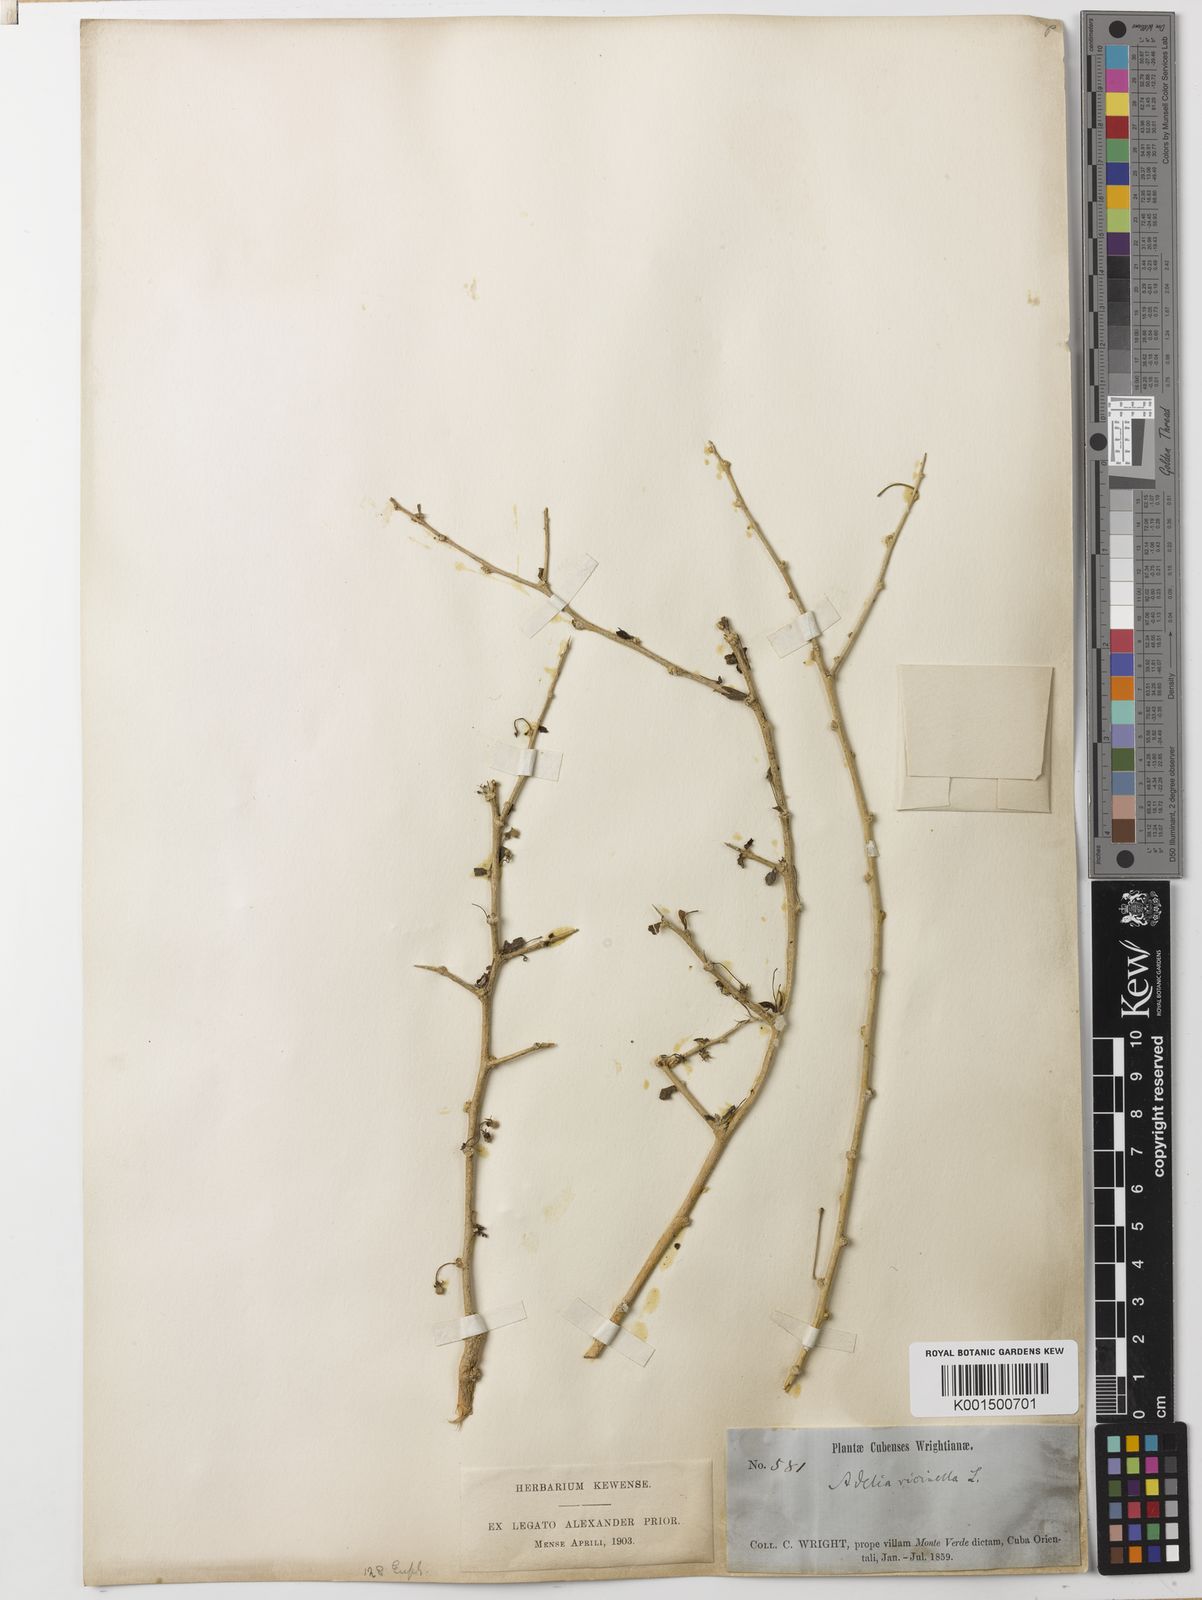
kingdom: Plantae
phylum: Tracheophyta
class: Magnoliopsida
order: Malpighiales
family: Euphorbiaceae
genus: Adelia
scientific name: Adelia ricinella
